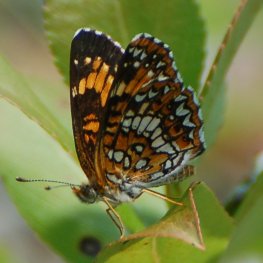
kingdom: Animalia
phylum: Arthropoda
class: Insecta
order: Lepidoptera
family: Nymphalidae
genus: Chlosyne
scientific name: Chlosyne harrisii
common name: Harris's Checkerspot
